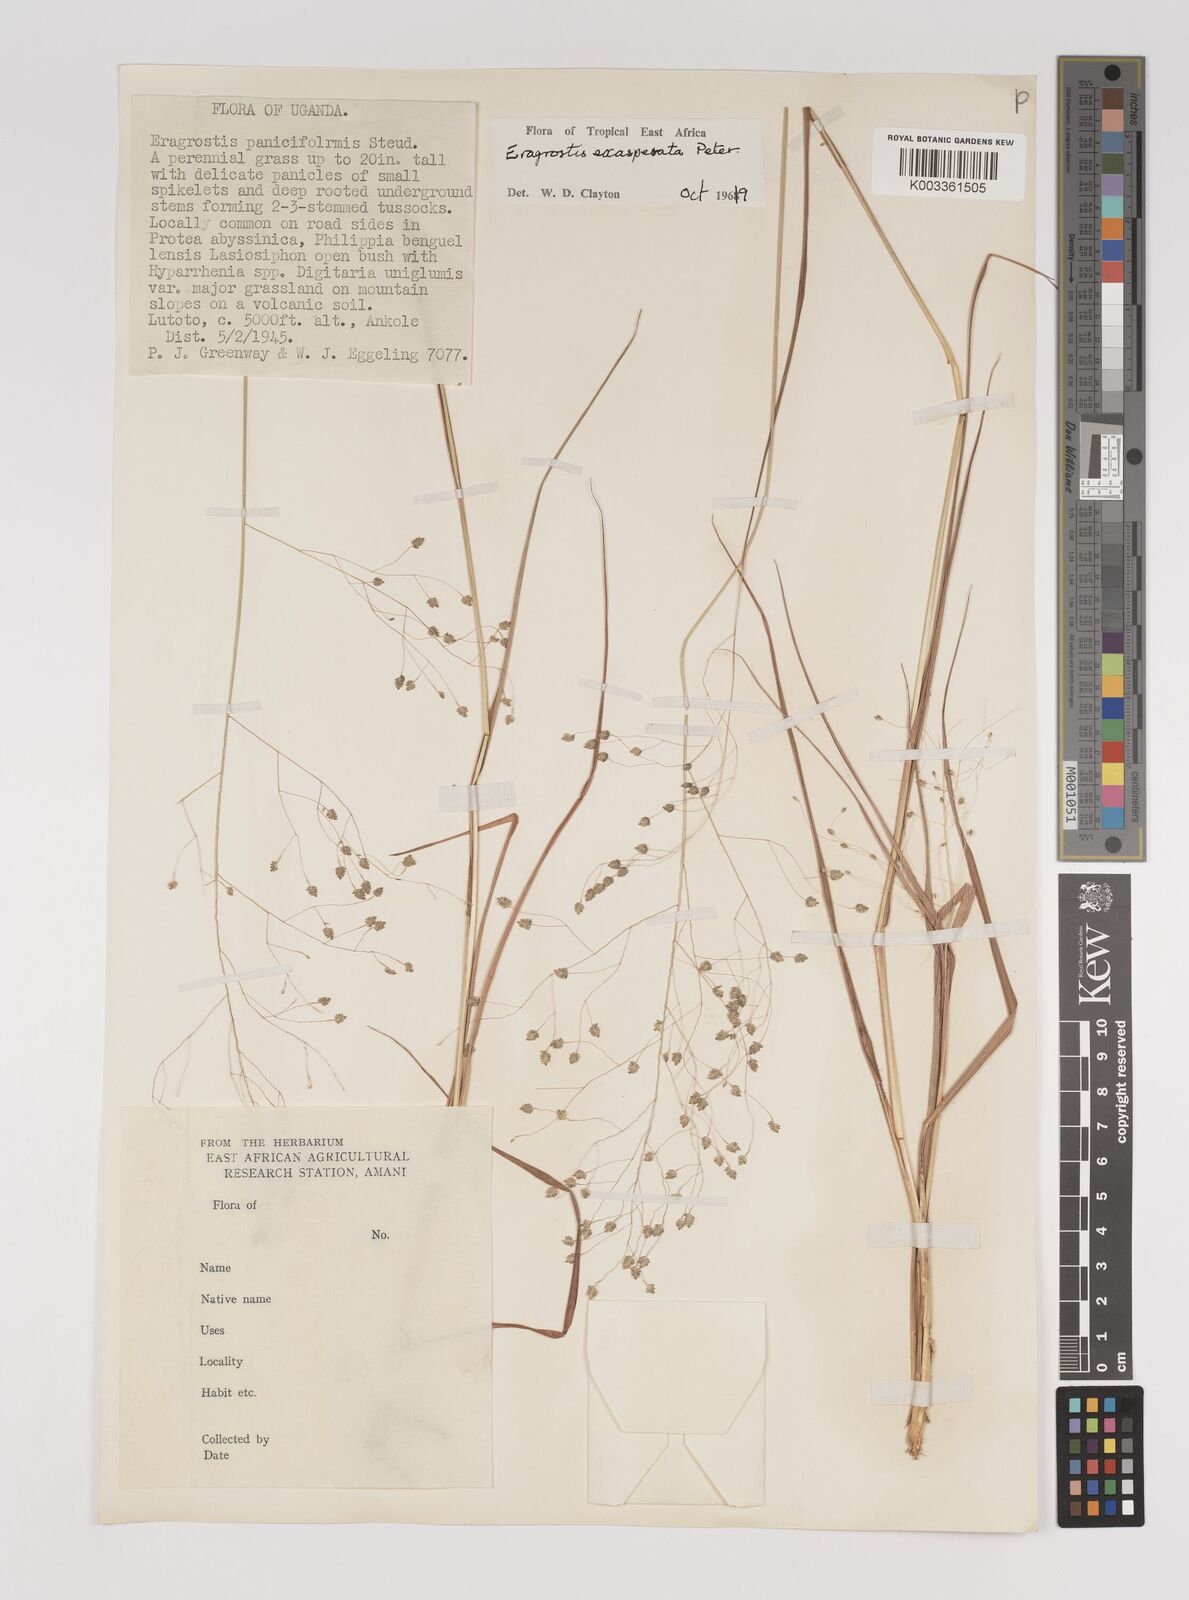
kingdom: Plantae
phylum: Tracheophyta
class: Liliopsida
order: Poales
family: Poaceae
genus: Eragrostis
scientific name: Eragrostis exasperata
